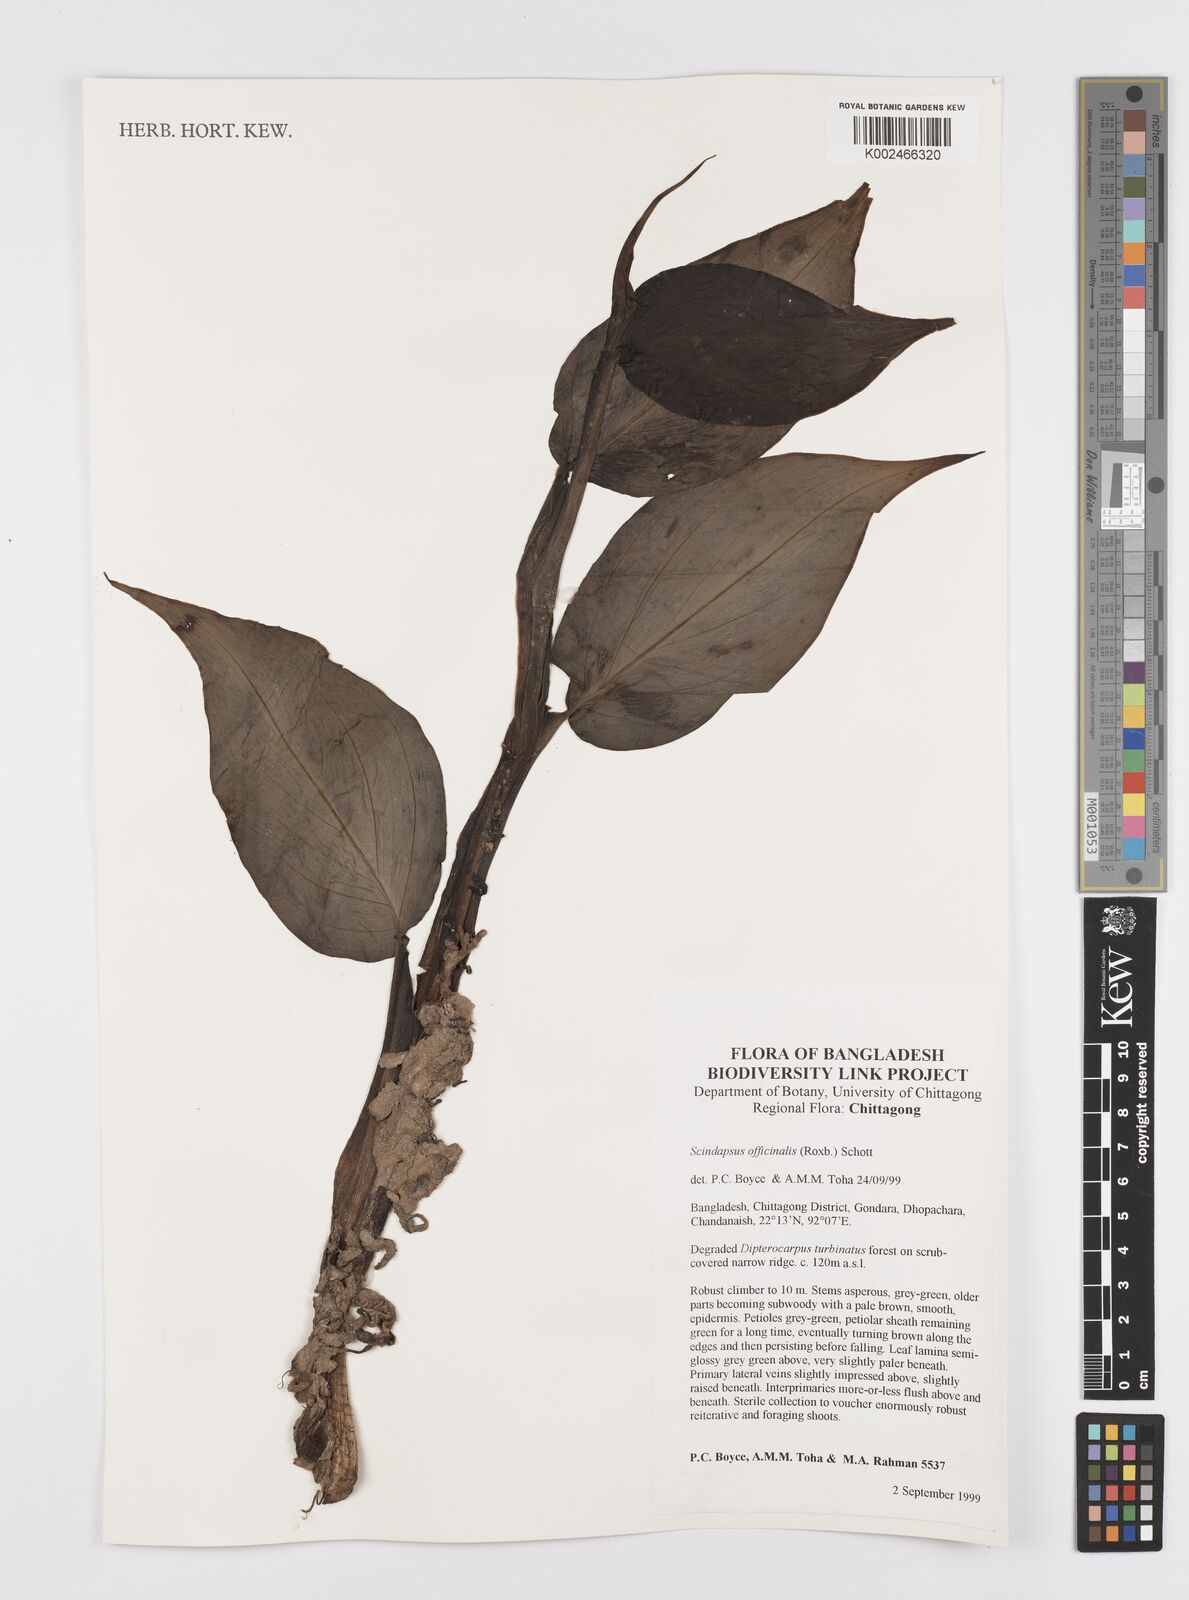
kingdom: Plantae
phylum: Tracheophyta
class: Liliopsida
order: Alismatales
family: Araceae
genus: Scindapsus
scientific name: Scindapsus officinalis
